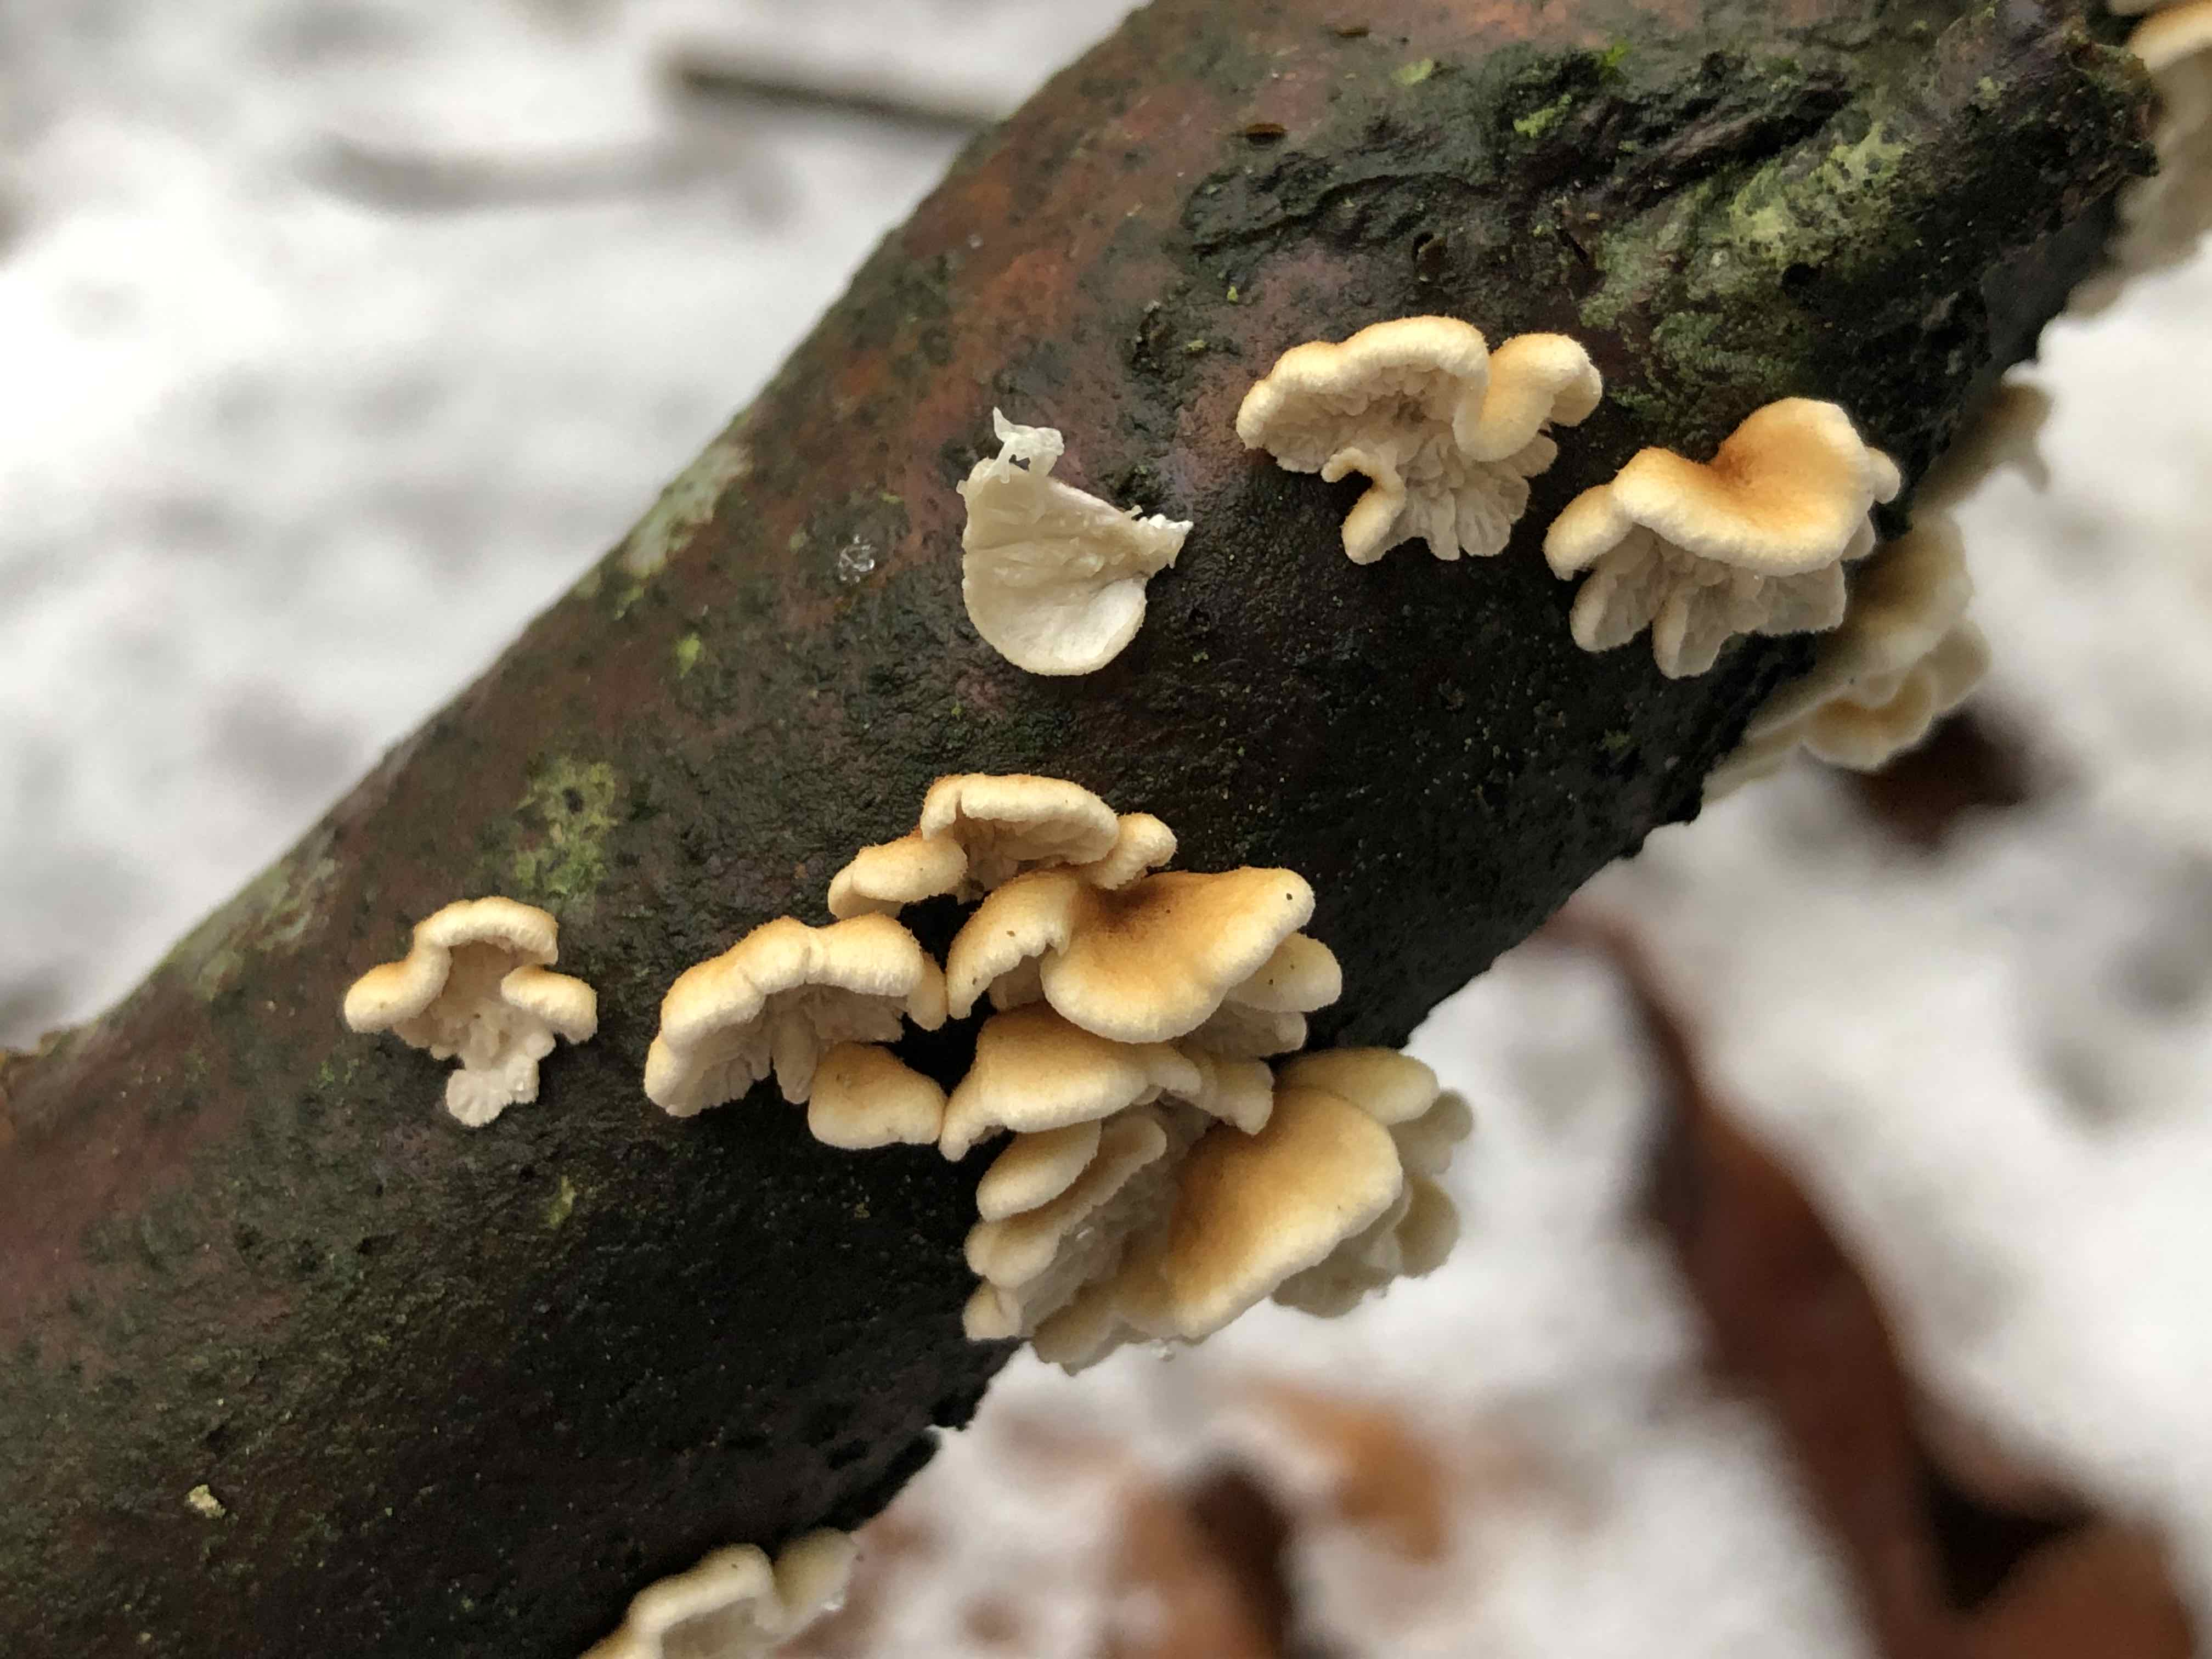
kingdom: Fungi
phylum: Basidiomycota
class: Agaricomycetes
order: Amylocorticiales
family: Amylocorticiaceae
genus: Plicaturopsis
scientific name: Plicaturopsis crispa
